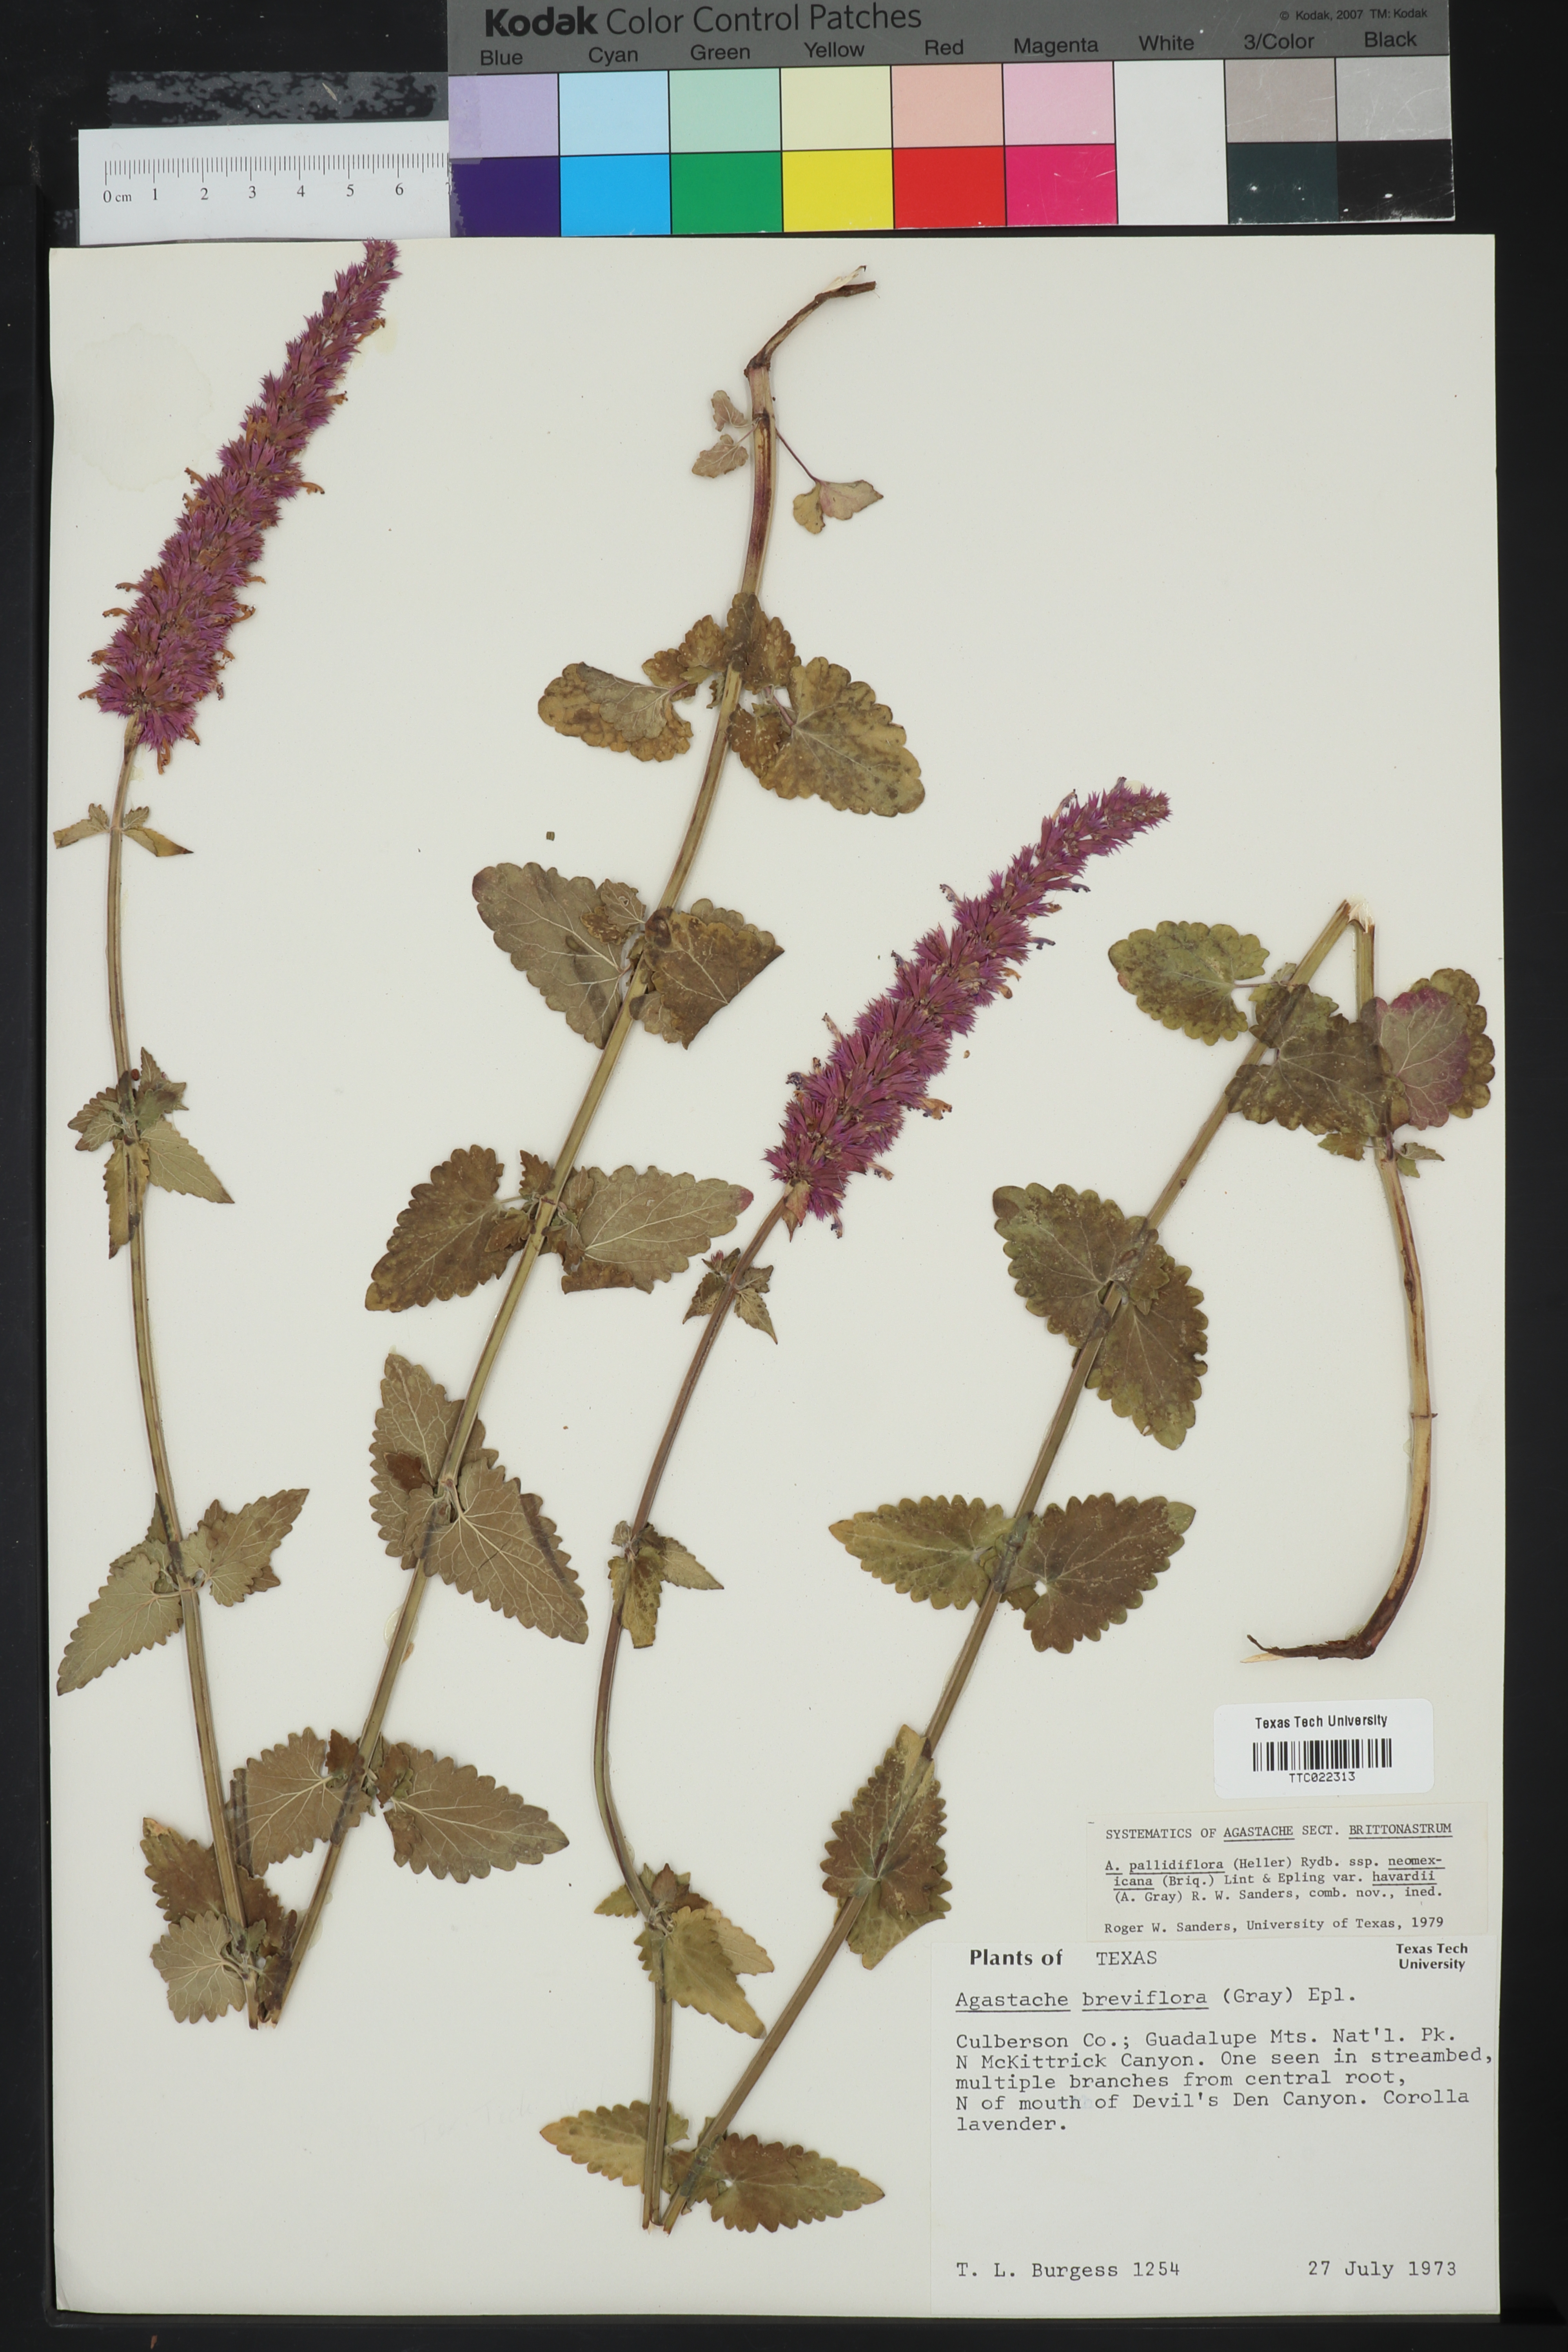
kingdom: Plantae
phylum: Tracheophyta
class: Magnoliopsida
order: Lamiales
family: Lamiaceae
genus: Agastache
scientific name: Agastache breviflora
